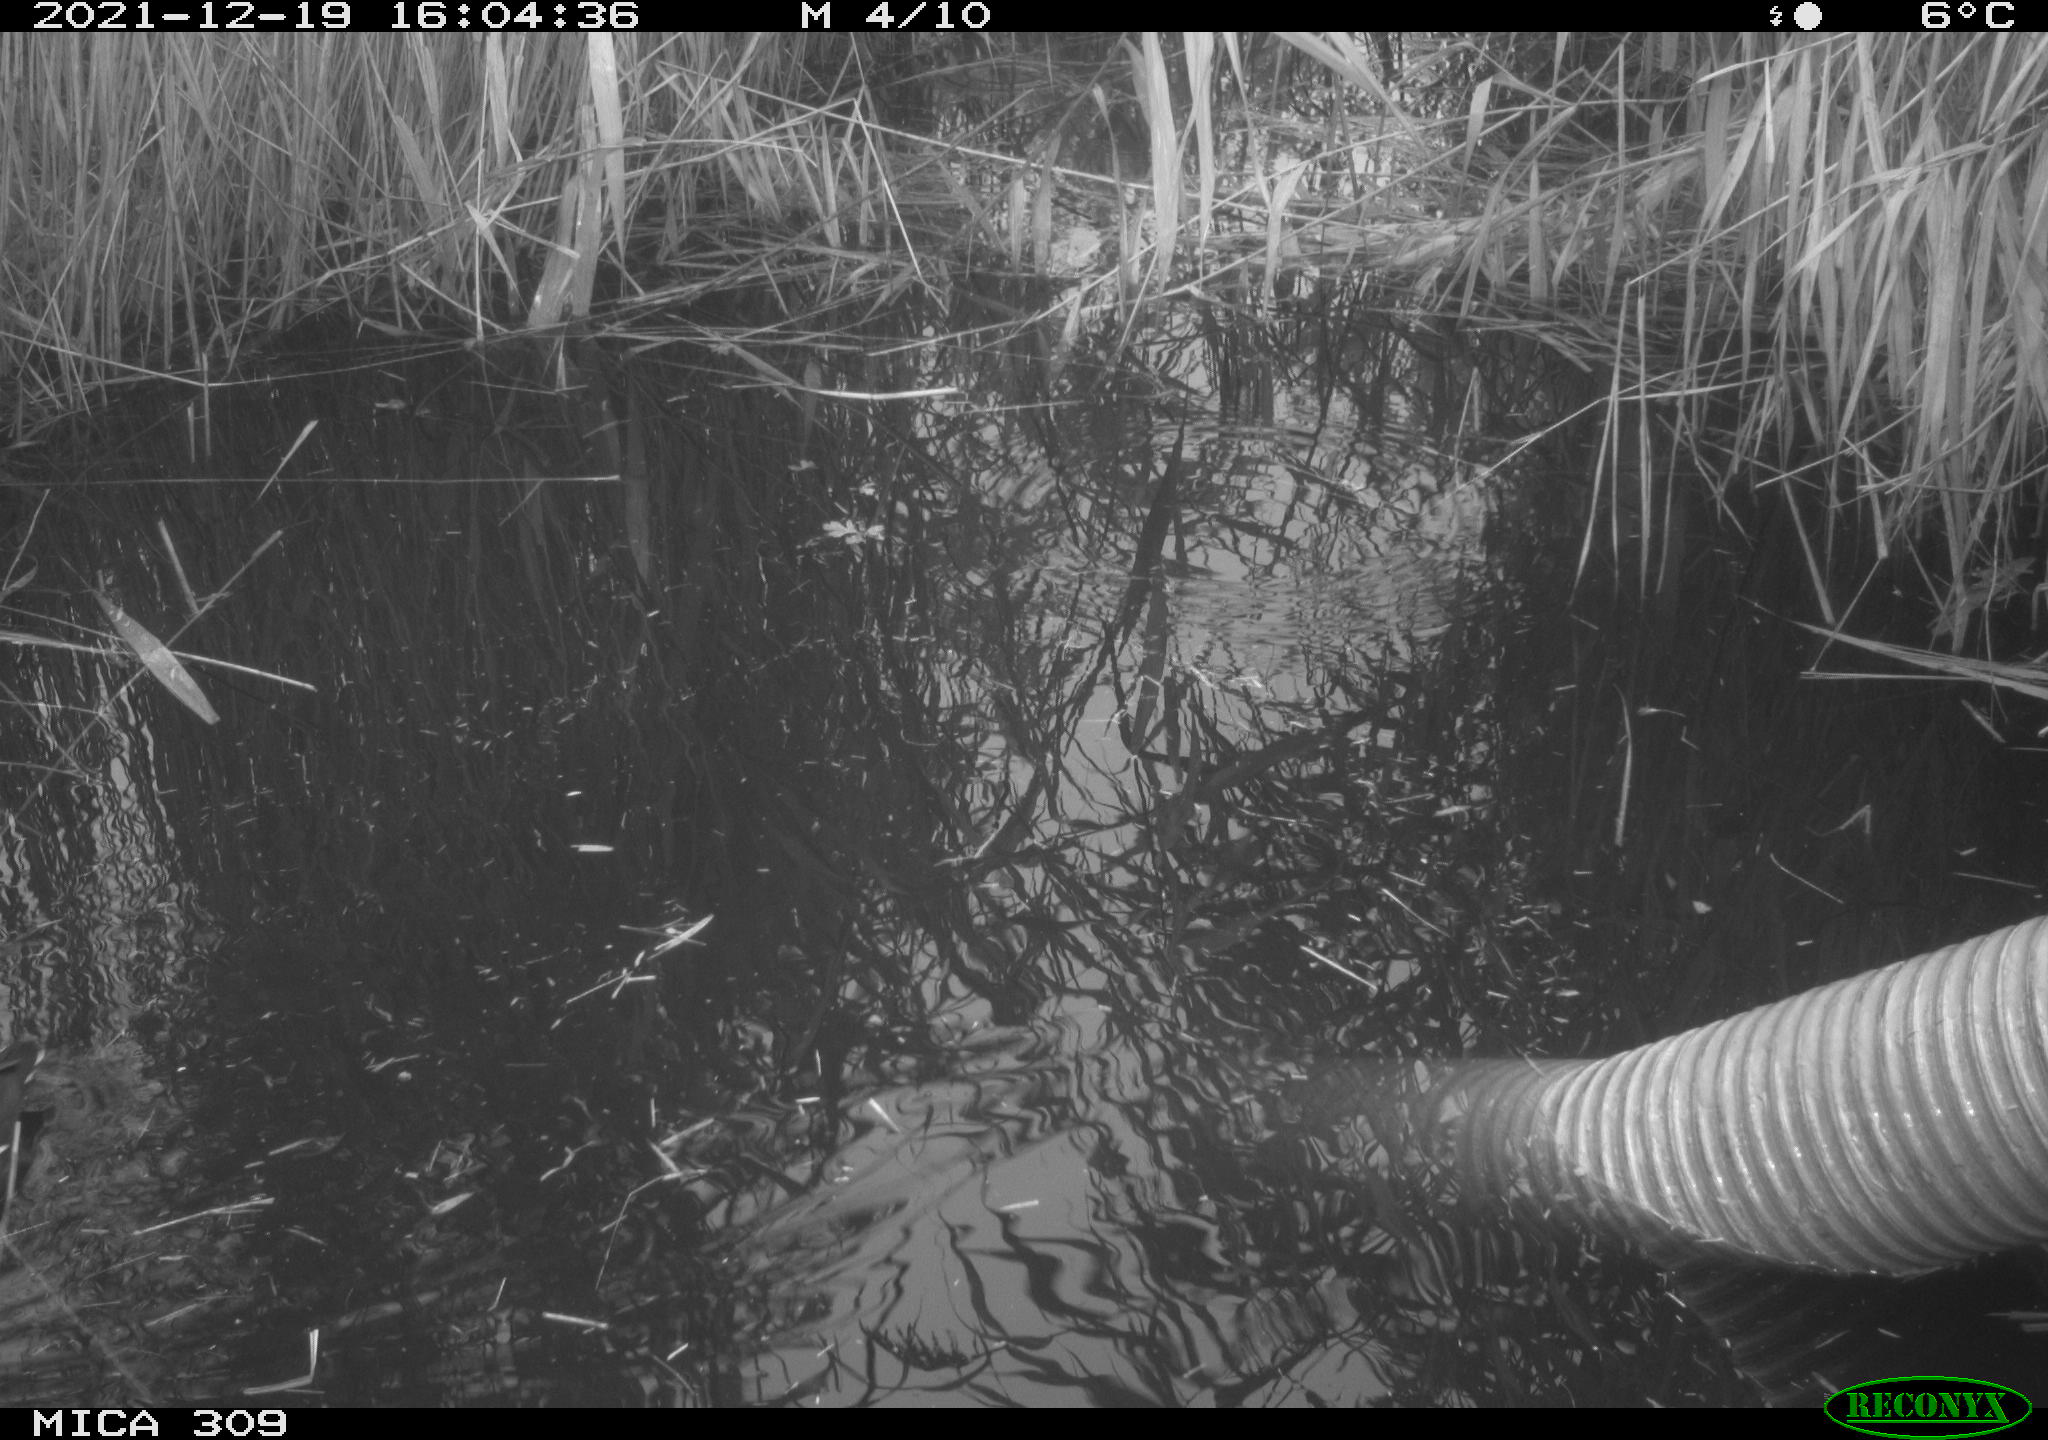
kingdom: Animalia
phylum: Chordata
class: Aves
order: Gruiformes
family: Rallidae
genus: Gallinula
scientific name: Gallinula chloropus
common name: Common moorhen
